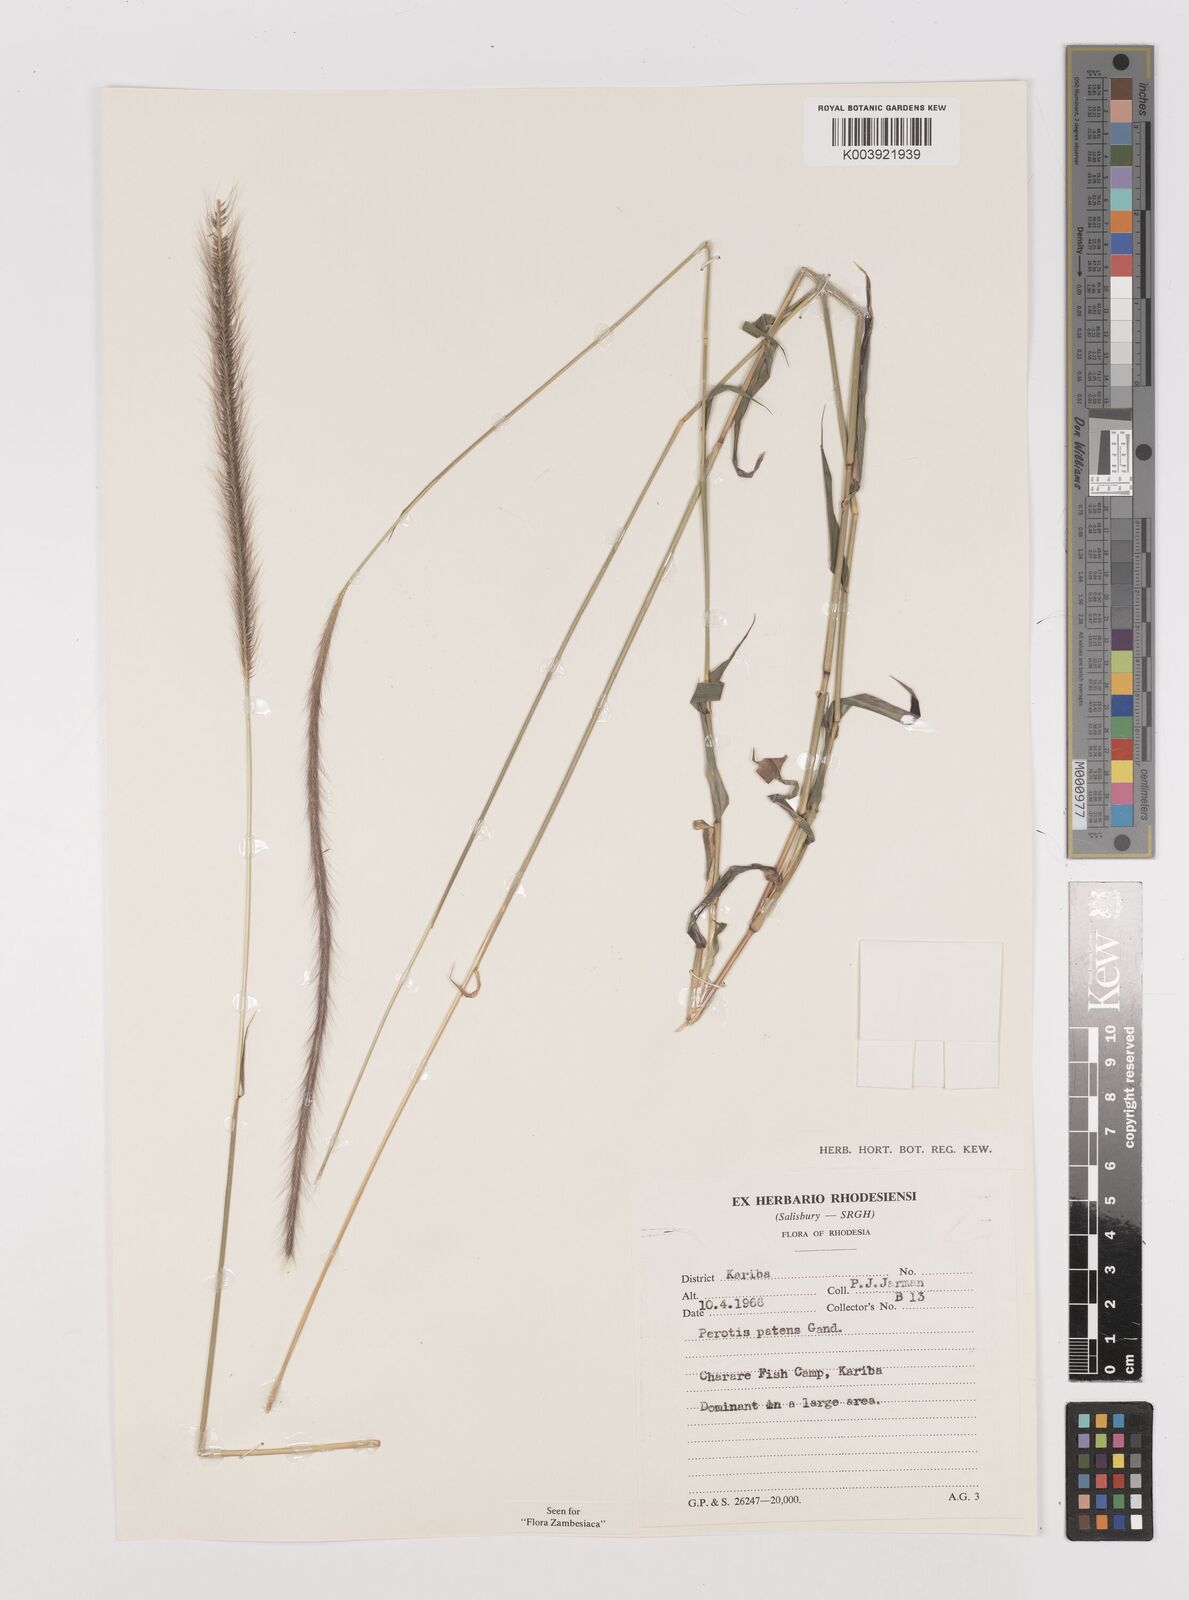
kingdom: Plantae
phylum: Tracheophyta
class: Liliopsida
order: Poales
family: Poaceae
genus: Perotis
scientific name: Perotis patens
